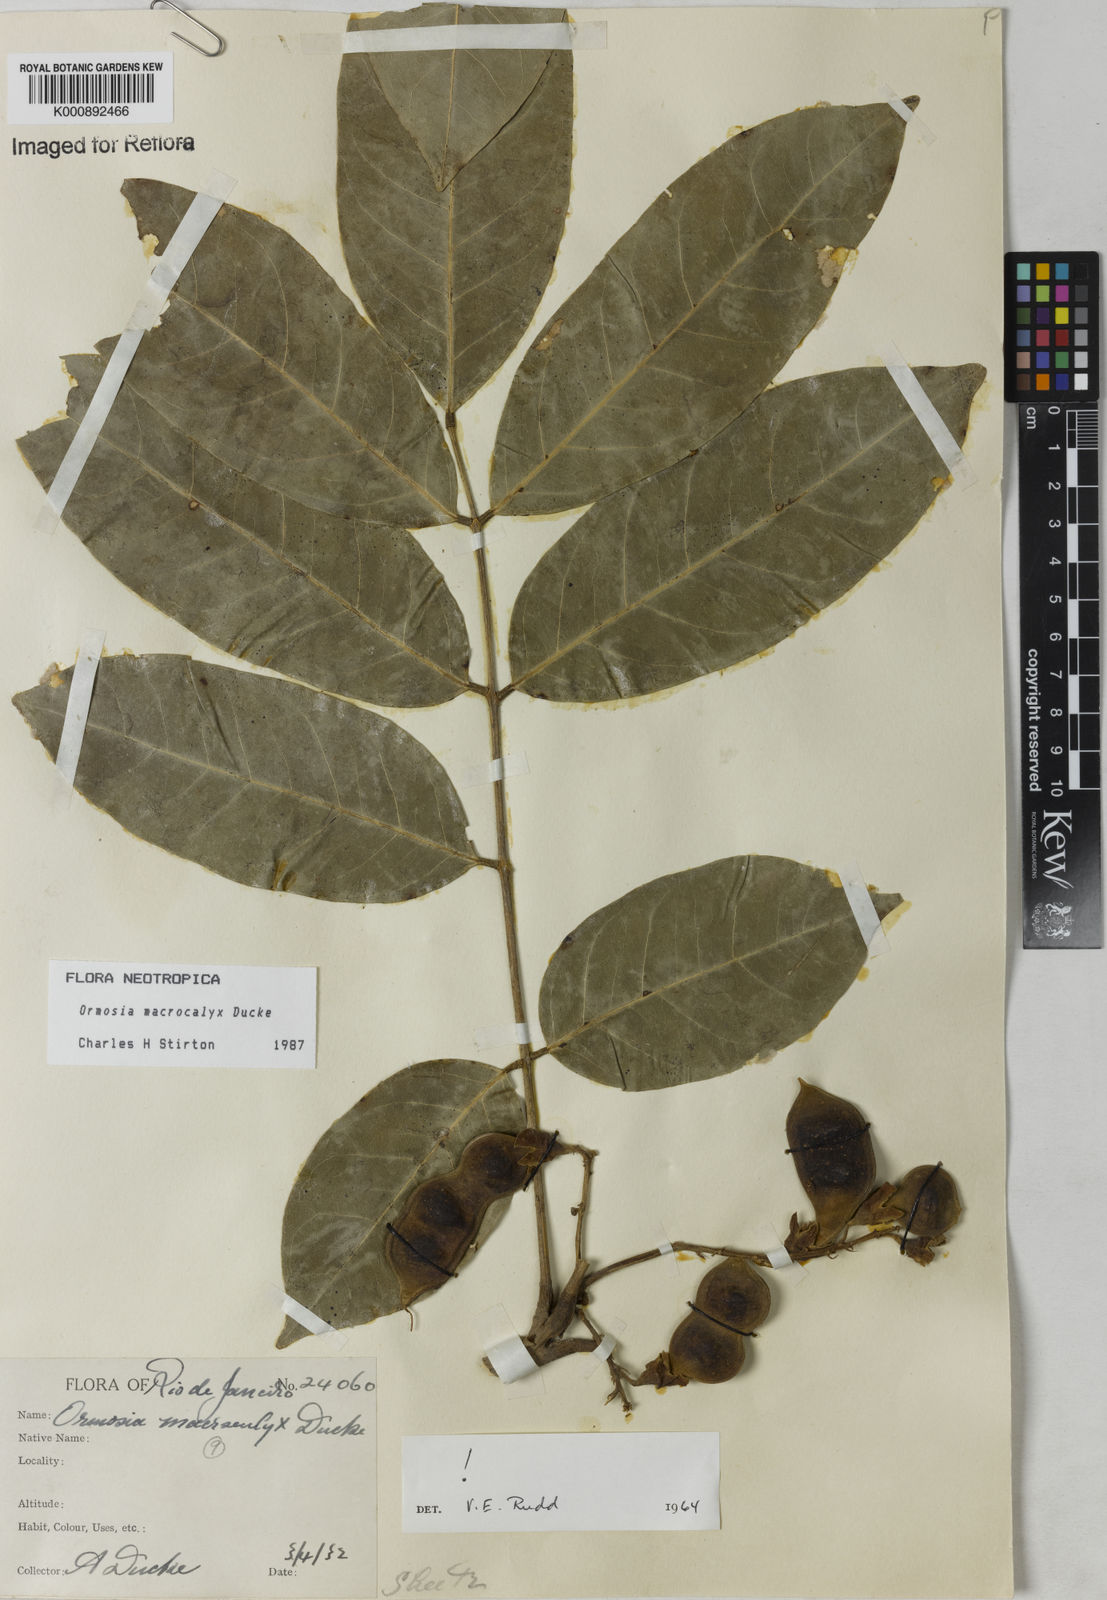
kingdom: Plantae
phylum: Tracheophyta
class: Magnoliopsida
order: Fabales
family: Fabaceae
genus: Ormosia
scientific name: Ormosia macrocalyx
